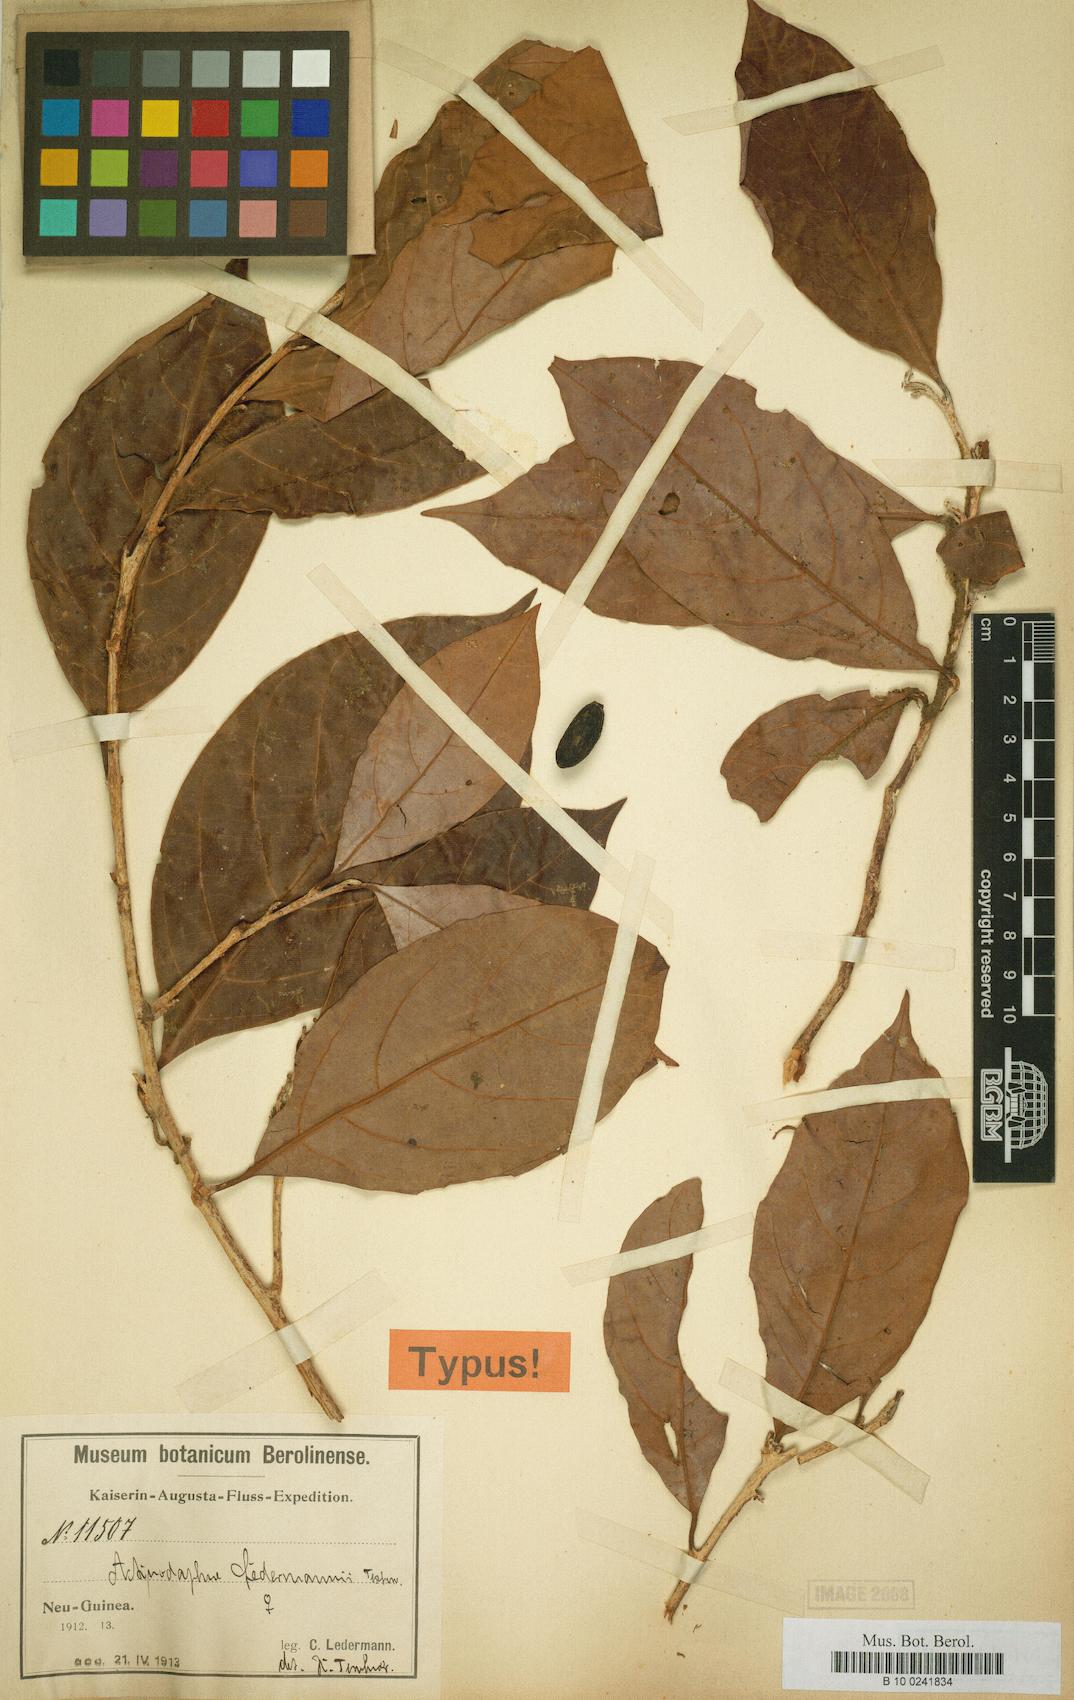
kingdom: Plantae
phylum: Tracheophyta
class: Magnoliopsida
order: Laurales
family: Lauraceae
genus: Actinodaphne
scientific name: Actinodaphne nitida
